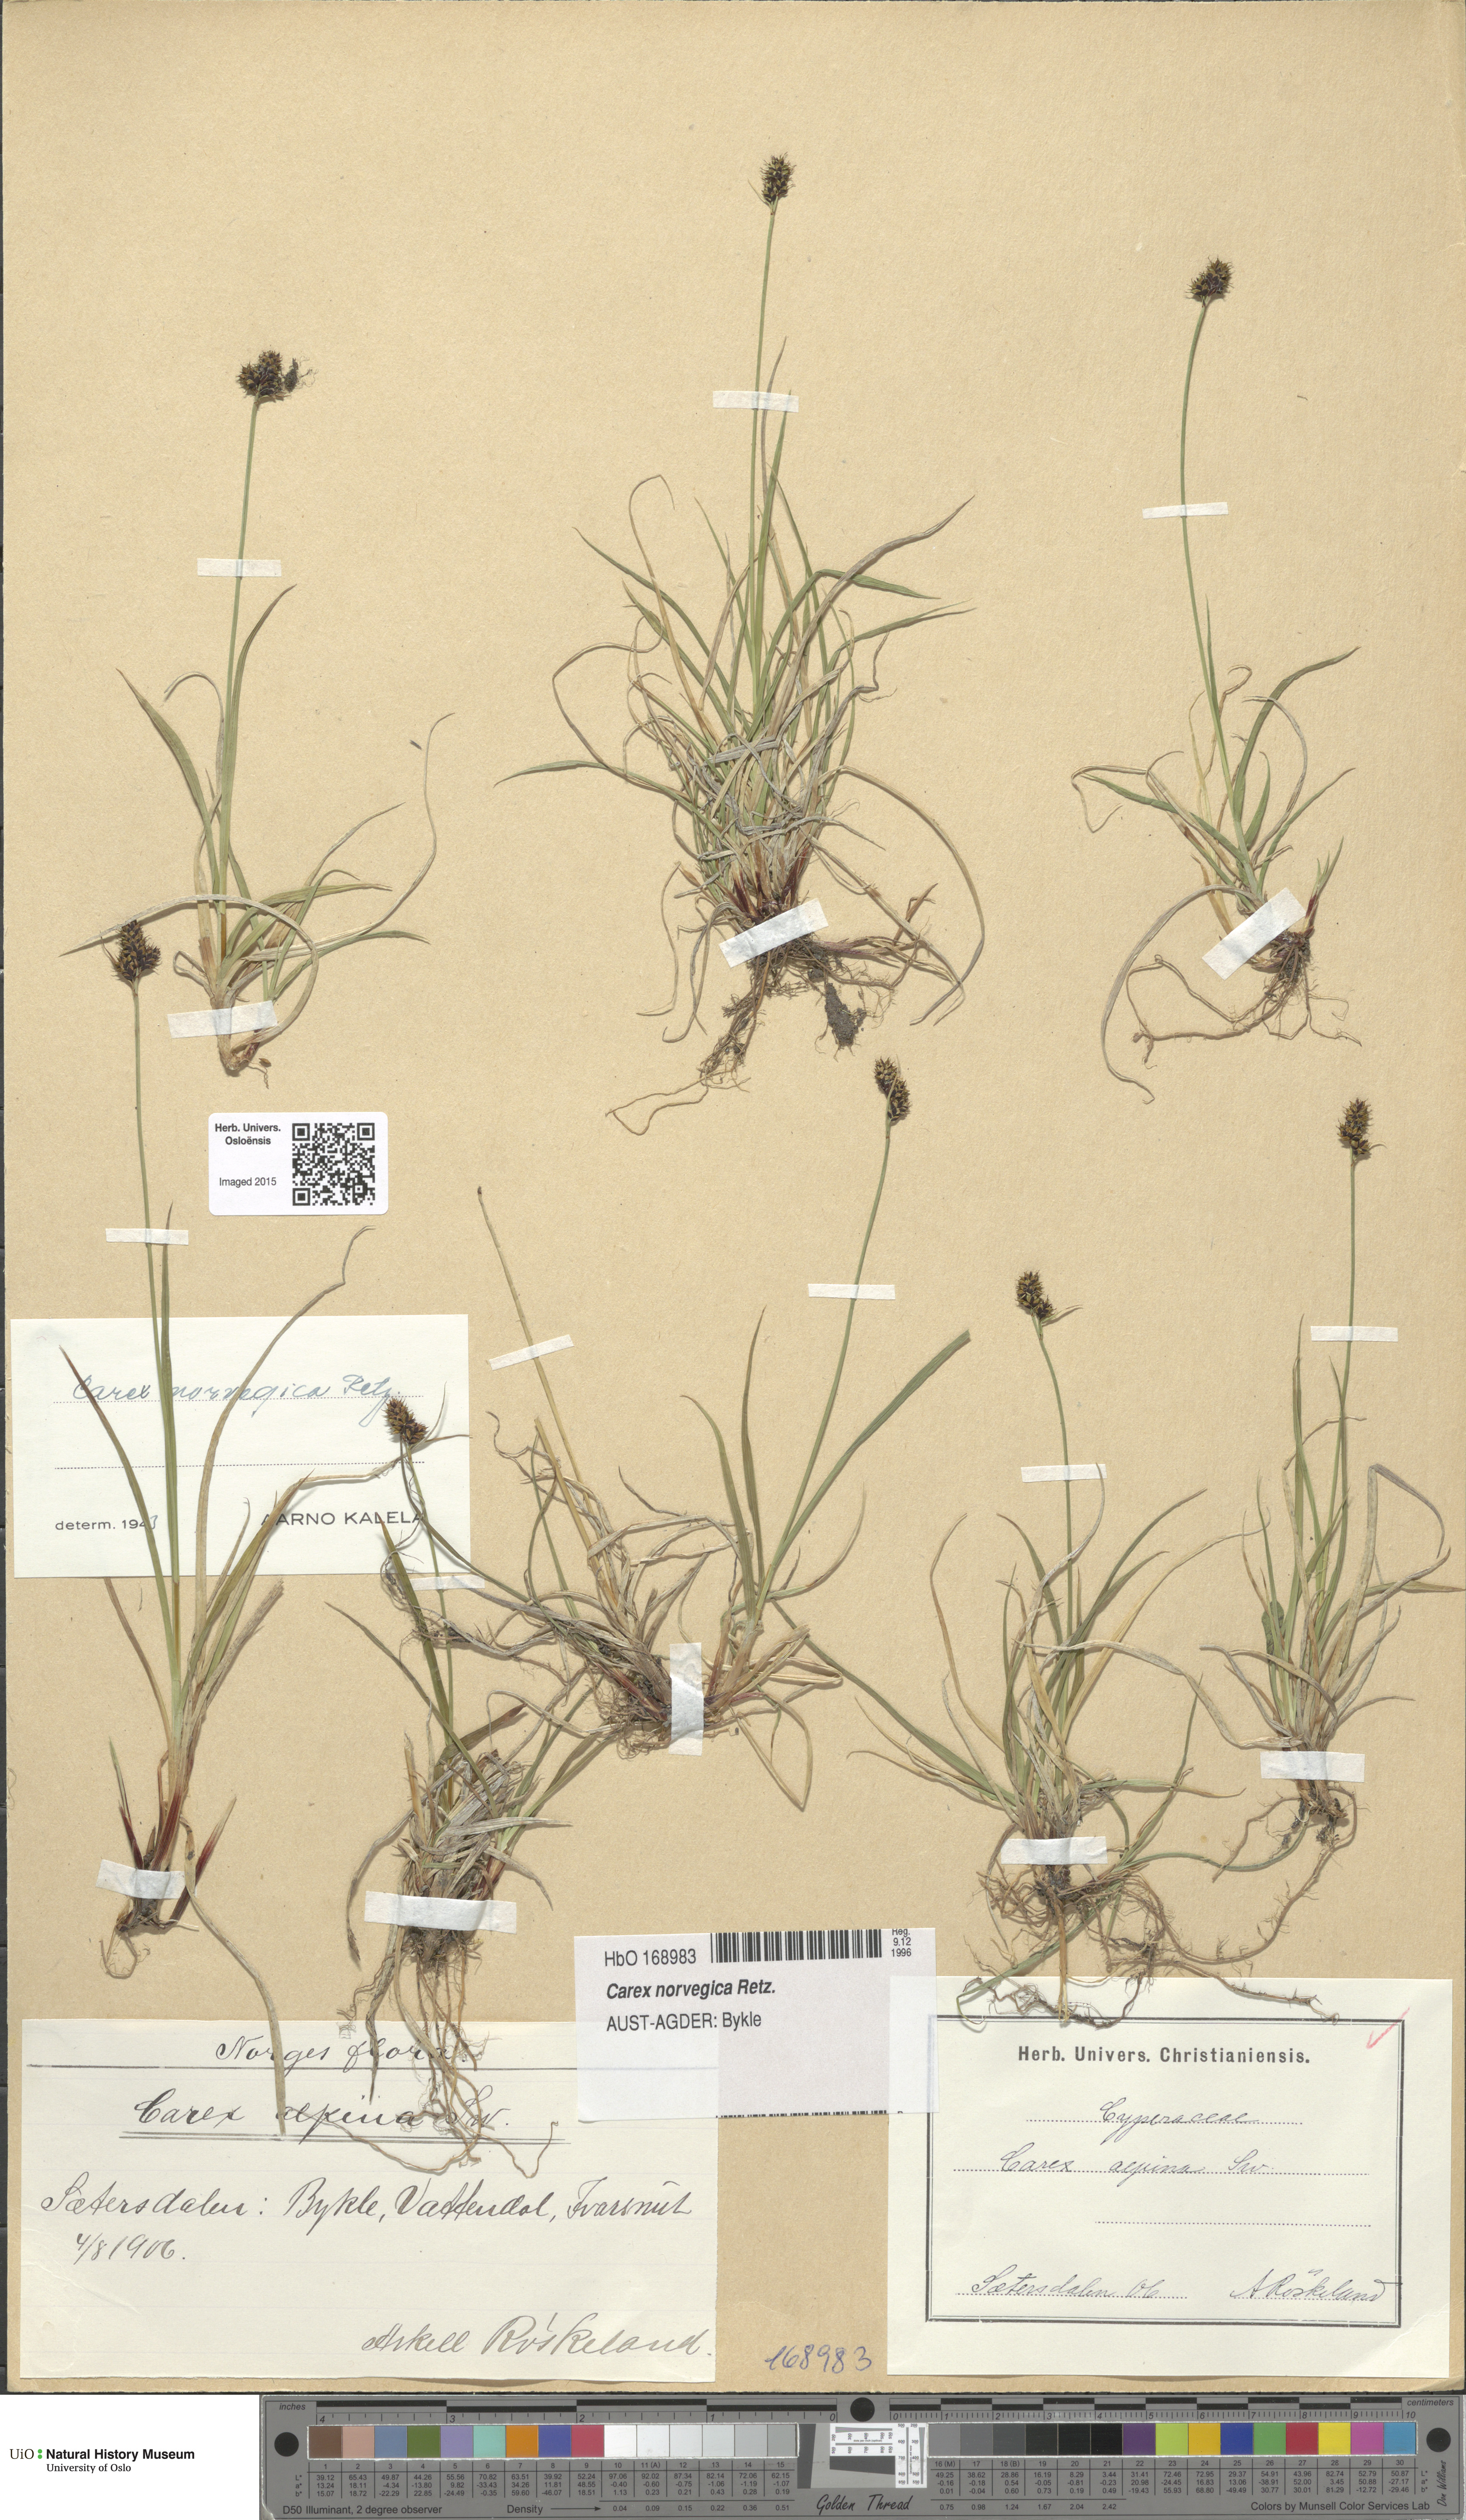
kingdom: Plantae
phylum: Tracheophyta
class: Liliopsida
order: Poales
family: Cyperaceae
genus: Carex
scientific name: Carex norvegica
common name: Close-headed alpine-sedge
